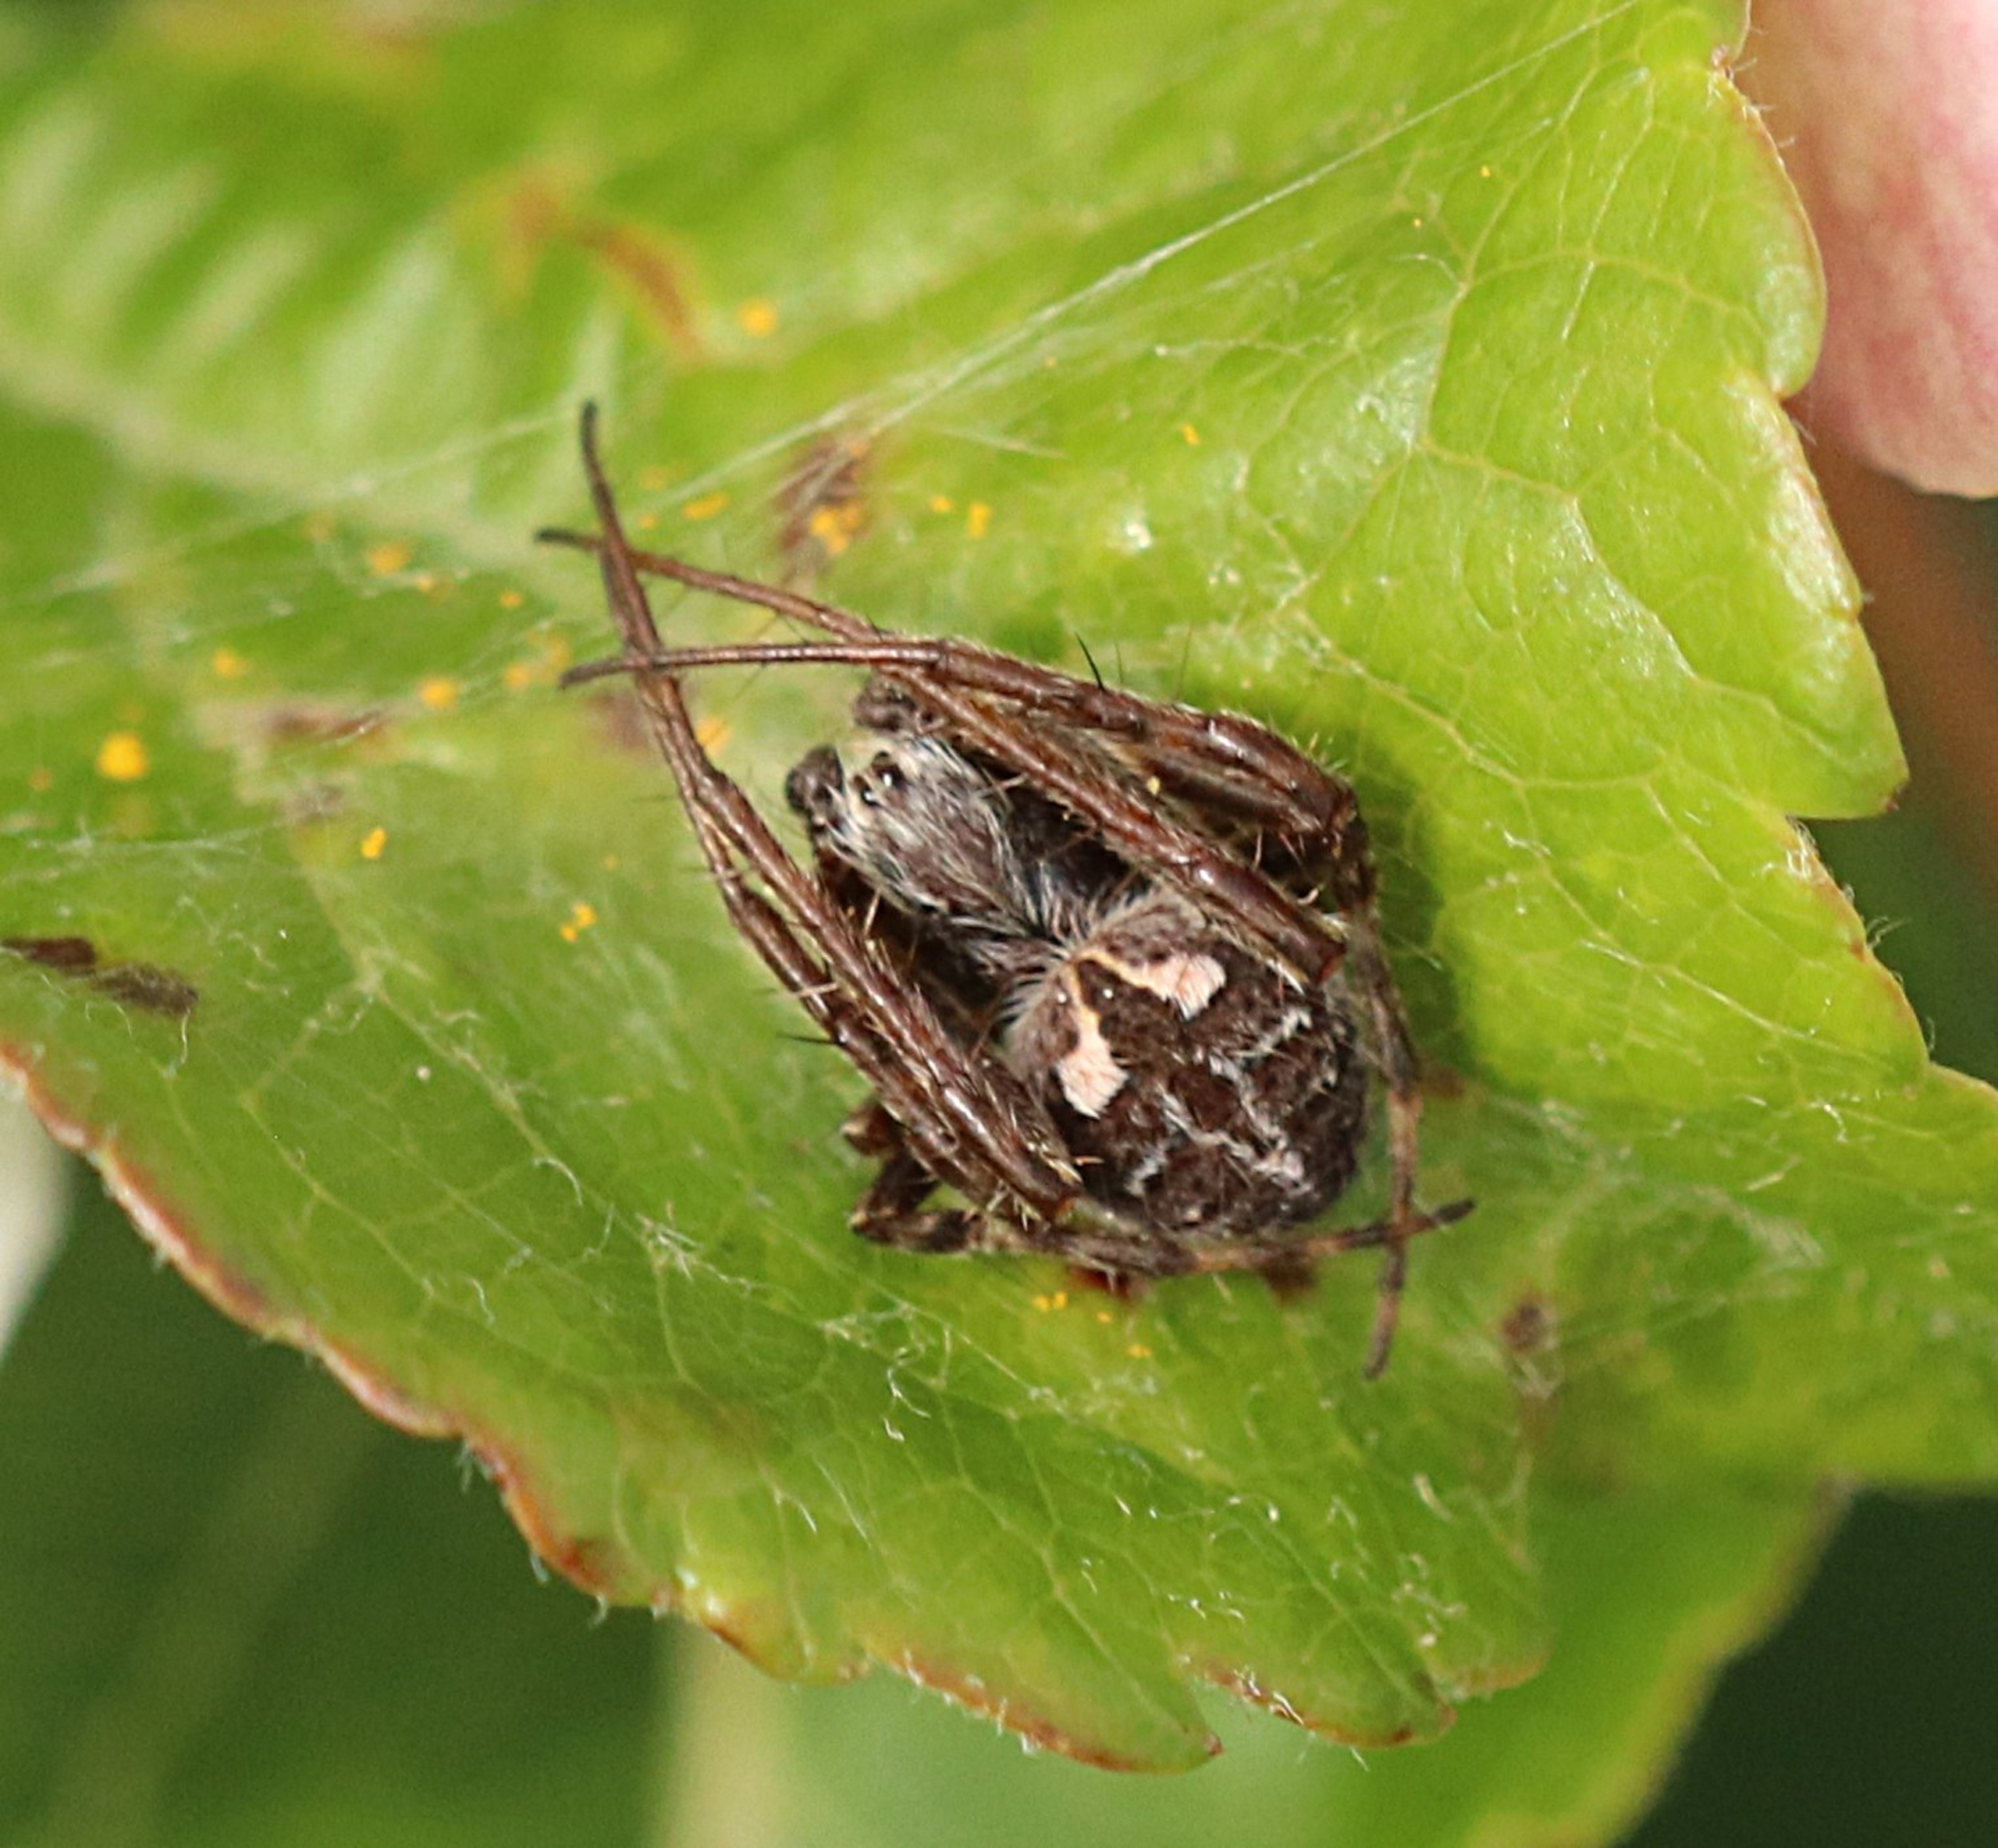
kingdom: Animalia
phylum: Arthropoda
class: Arachnida
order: Araneae
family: Araneidae
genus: Agalenatea
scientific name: Agalenatea redii
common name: Lodden hjulspinder
